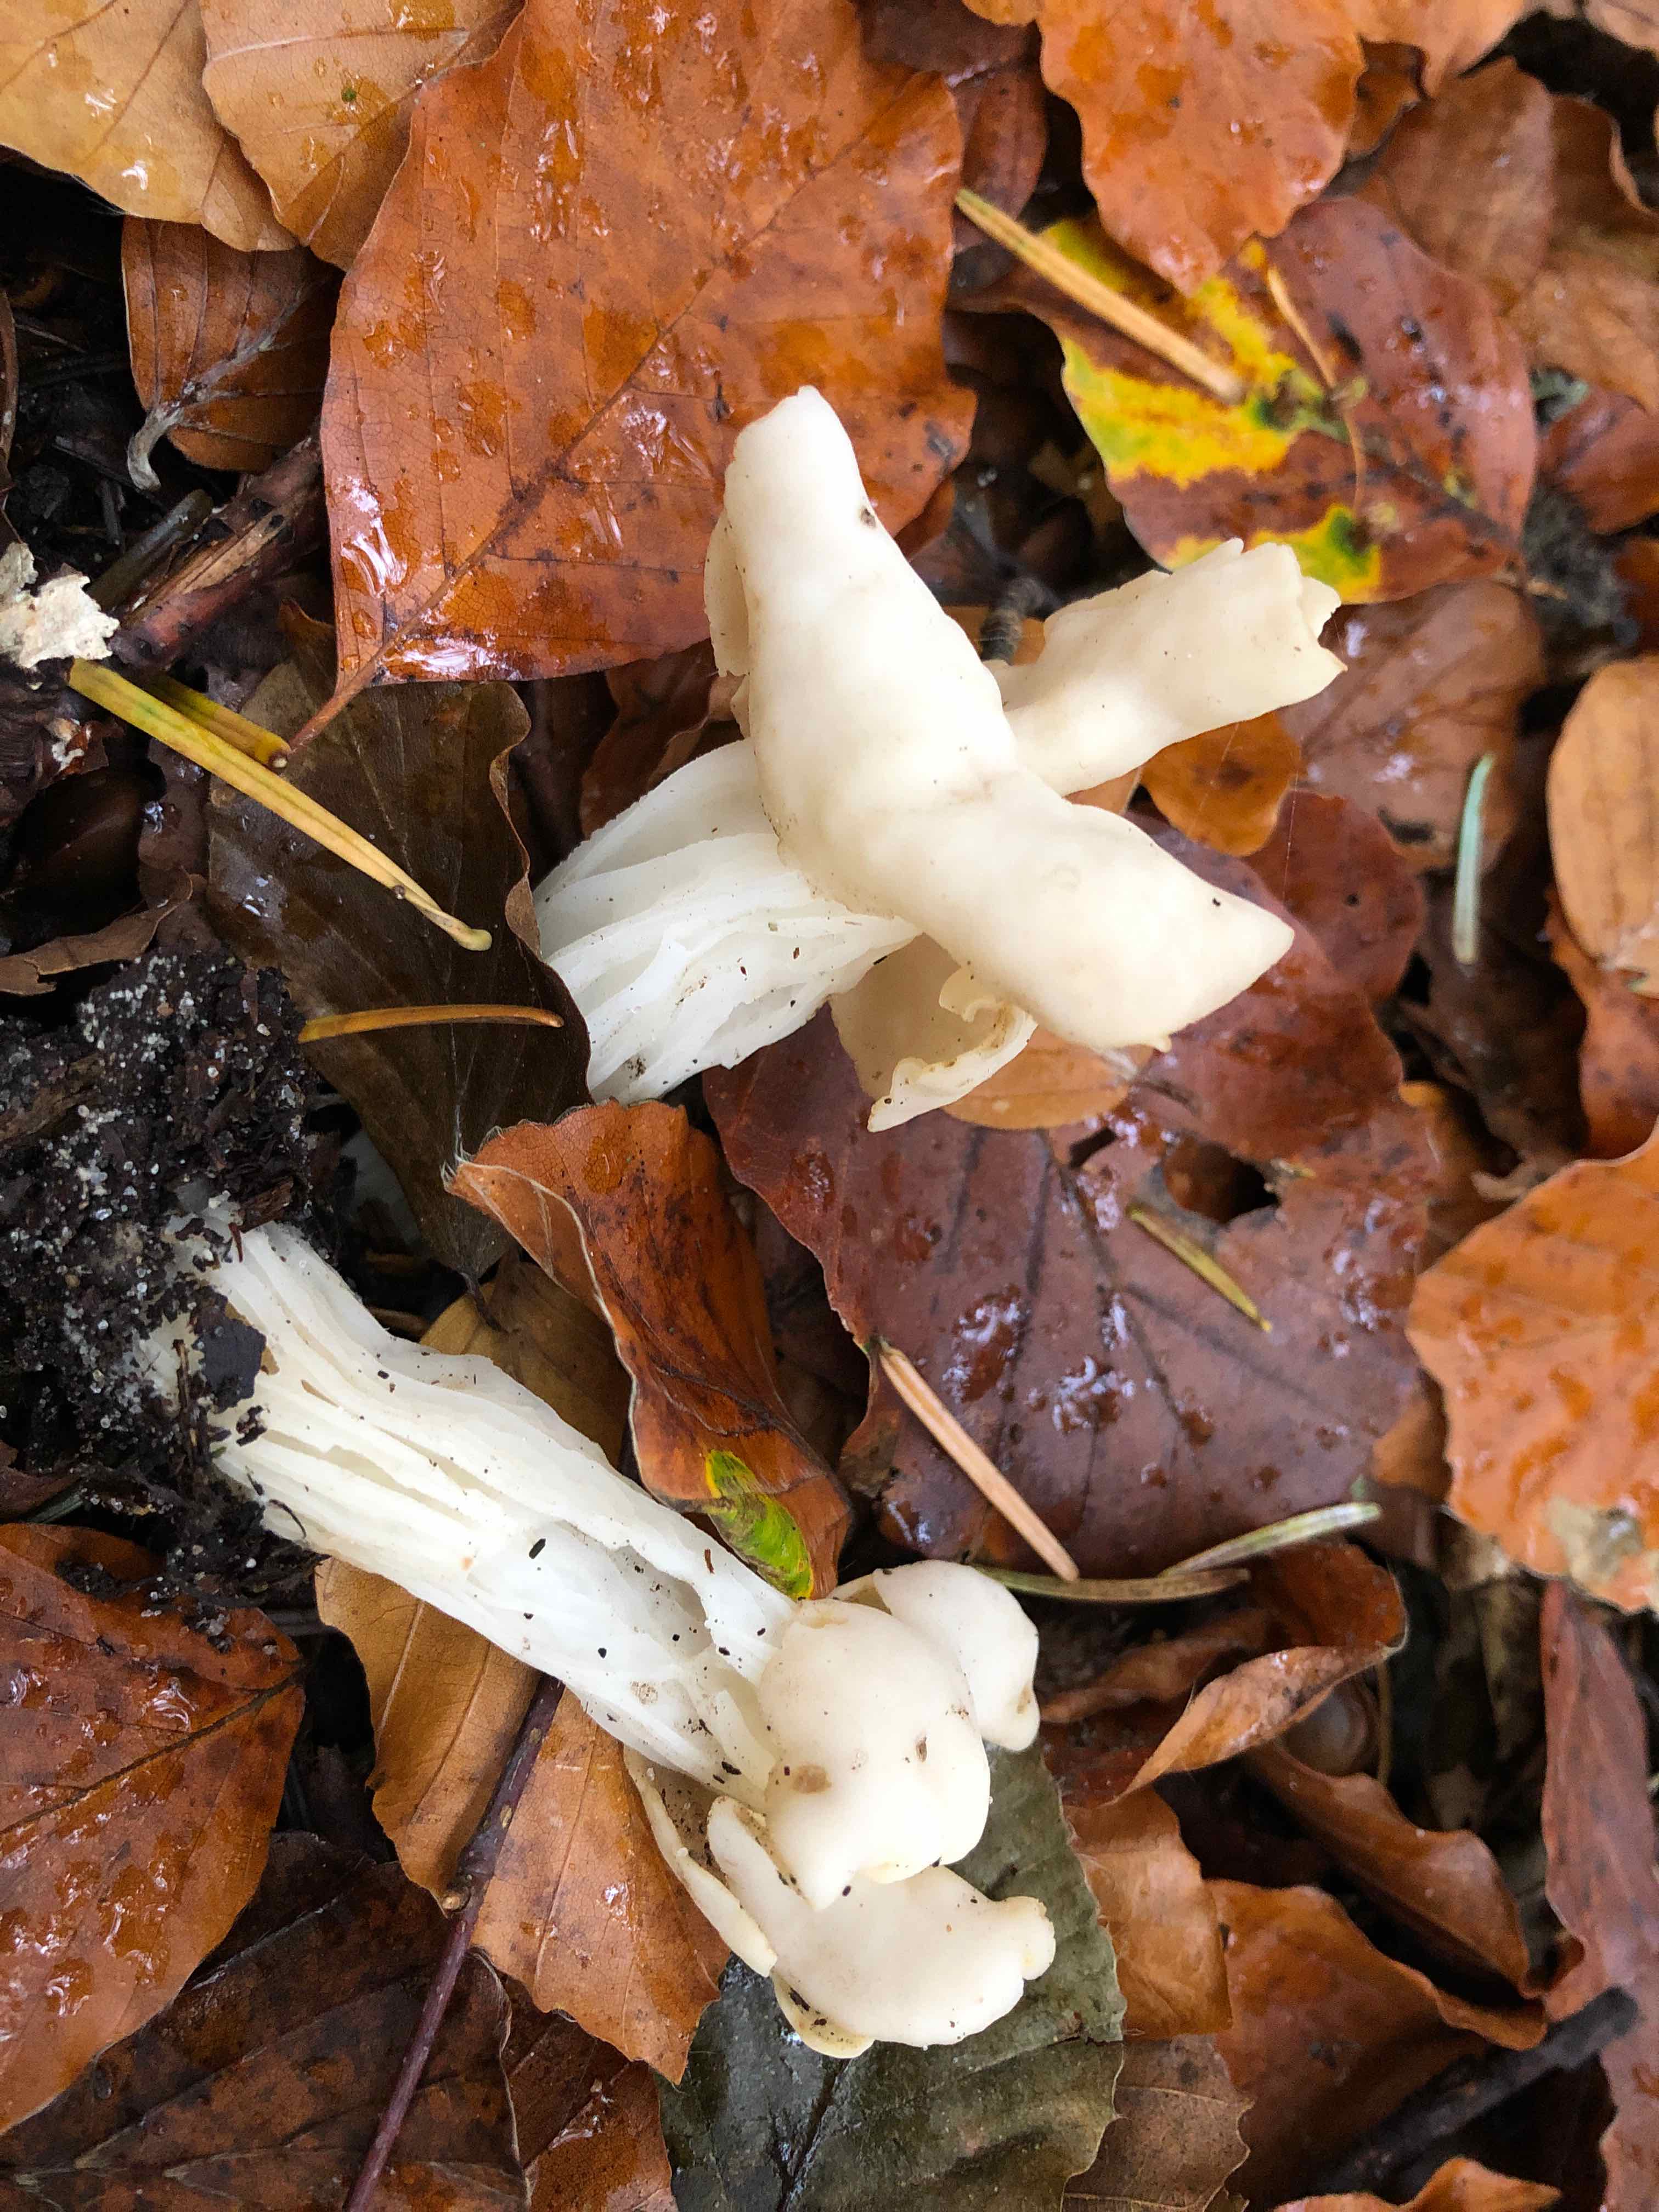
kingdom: Fungi
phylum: Ascomycota
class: Pezizomycetes
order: Pezizales
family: Helvellaceae
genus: Helvella
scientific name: Helvella crispa
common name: kruset foldhat
